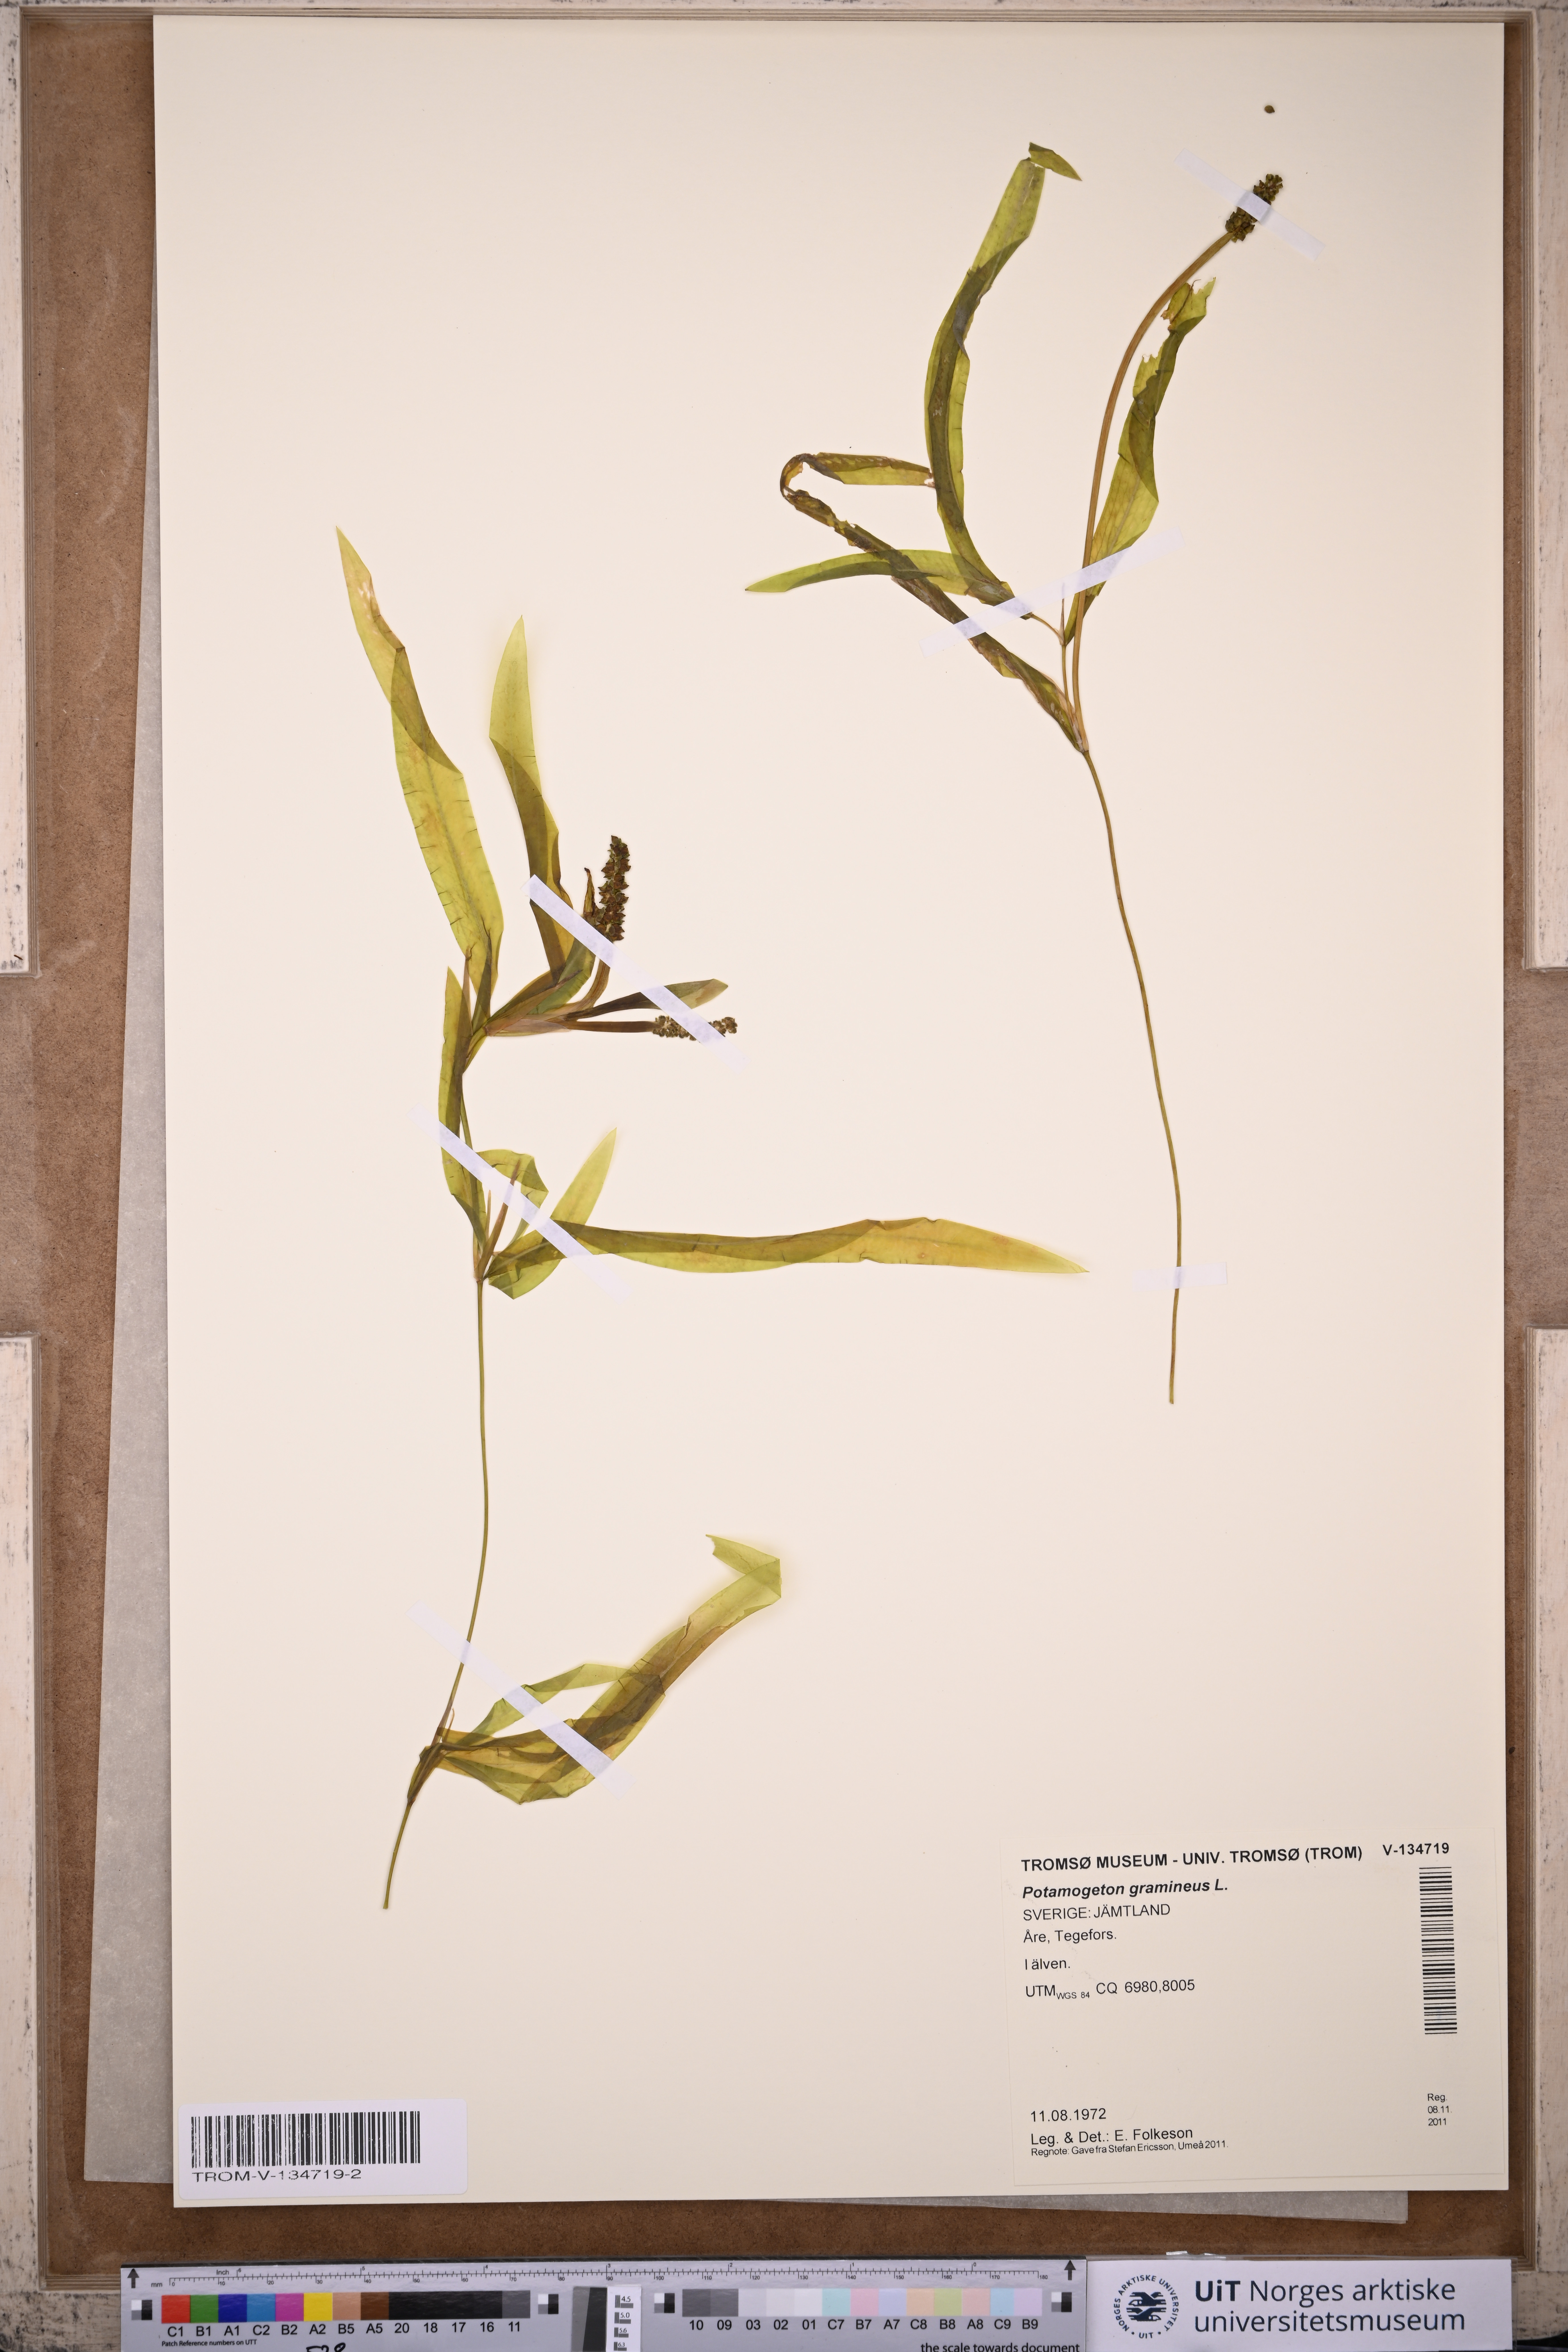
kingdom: Plantae
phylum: Tracheophyta
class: Liliopsida
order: Alismatales
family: Potamogetonaceae
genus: Potamogeton
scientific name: Potamogeton gramineus
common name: Various-leaved pondweed
